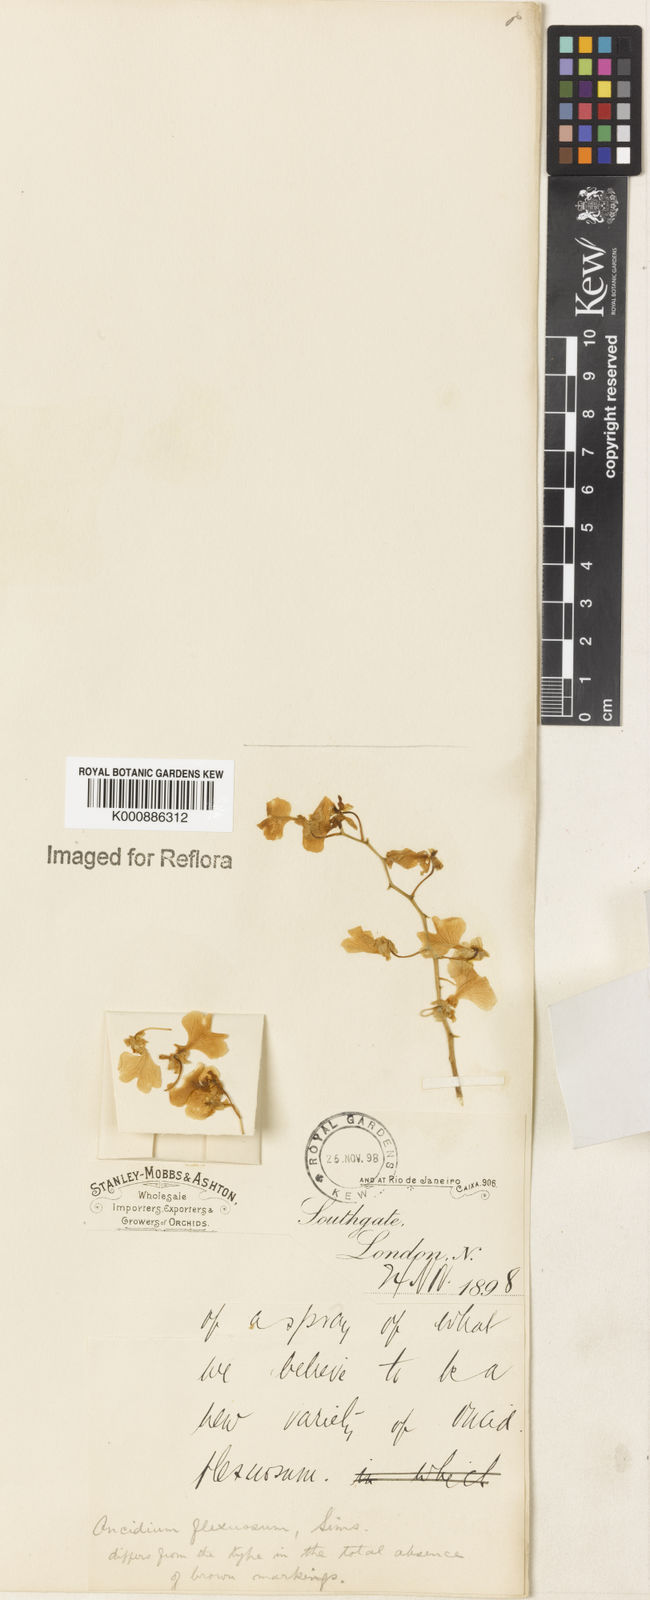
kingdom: Plantae
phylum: Tracheophyta
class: Liliopsida
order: Asparagales
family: Orchidaceae
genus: Gomesa
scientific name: Gomesa flexuosa
